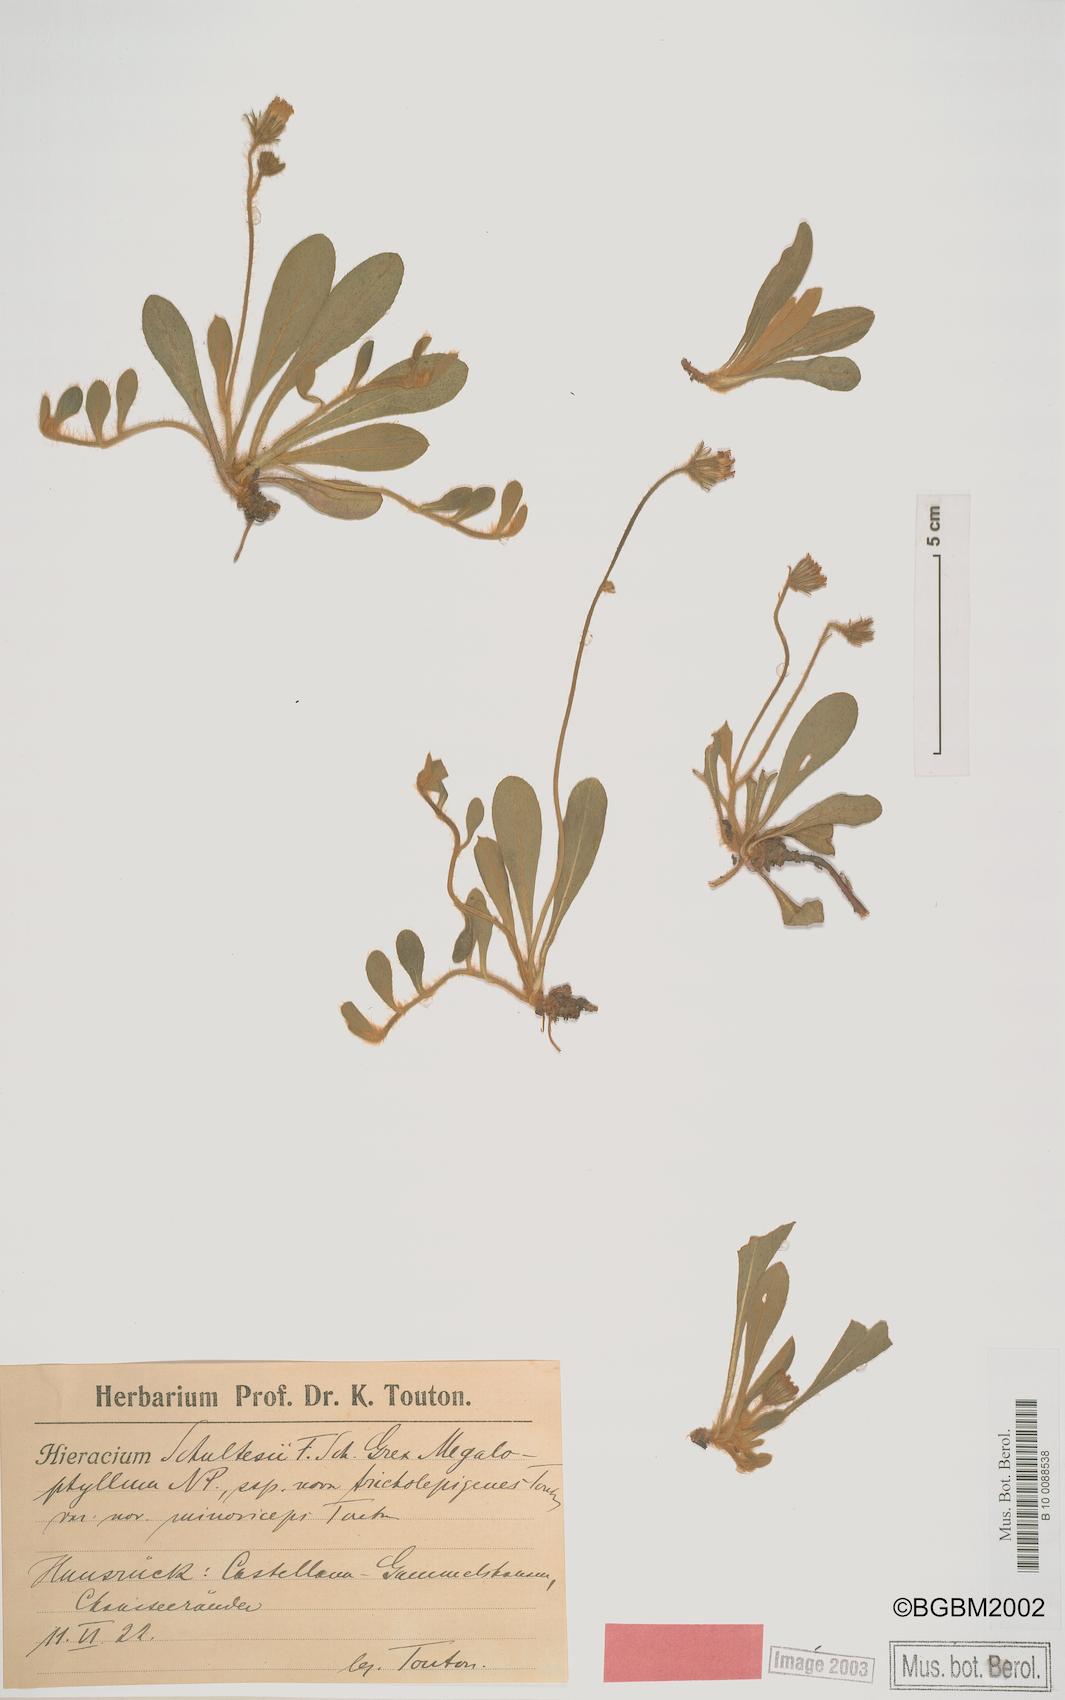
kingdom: Plantae
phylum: Tracheophyta
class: Magnoliopsida
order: Asterales
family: Asteraceae
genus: Pilosella
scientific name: Pilosella schultesii
